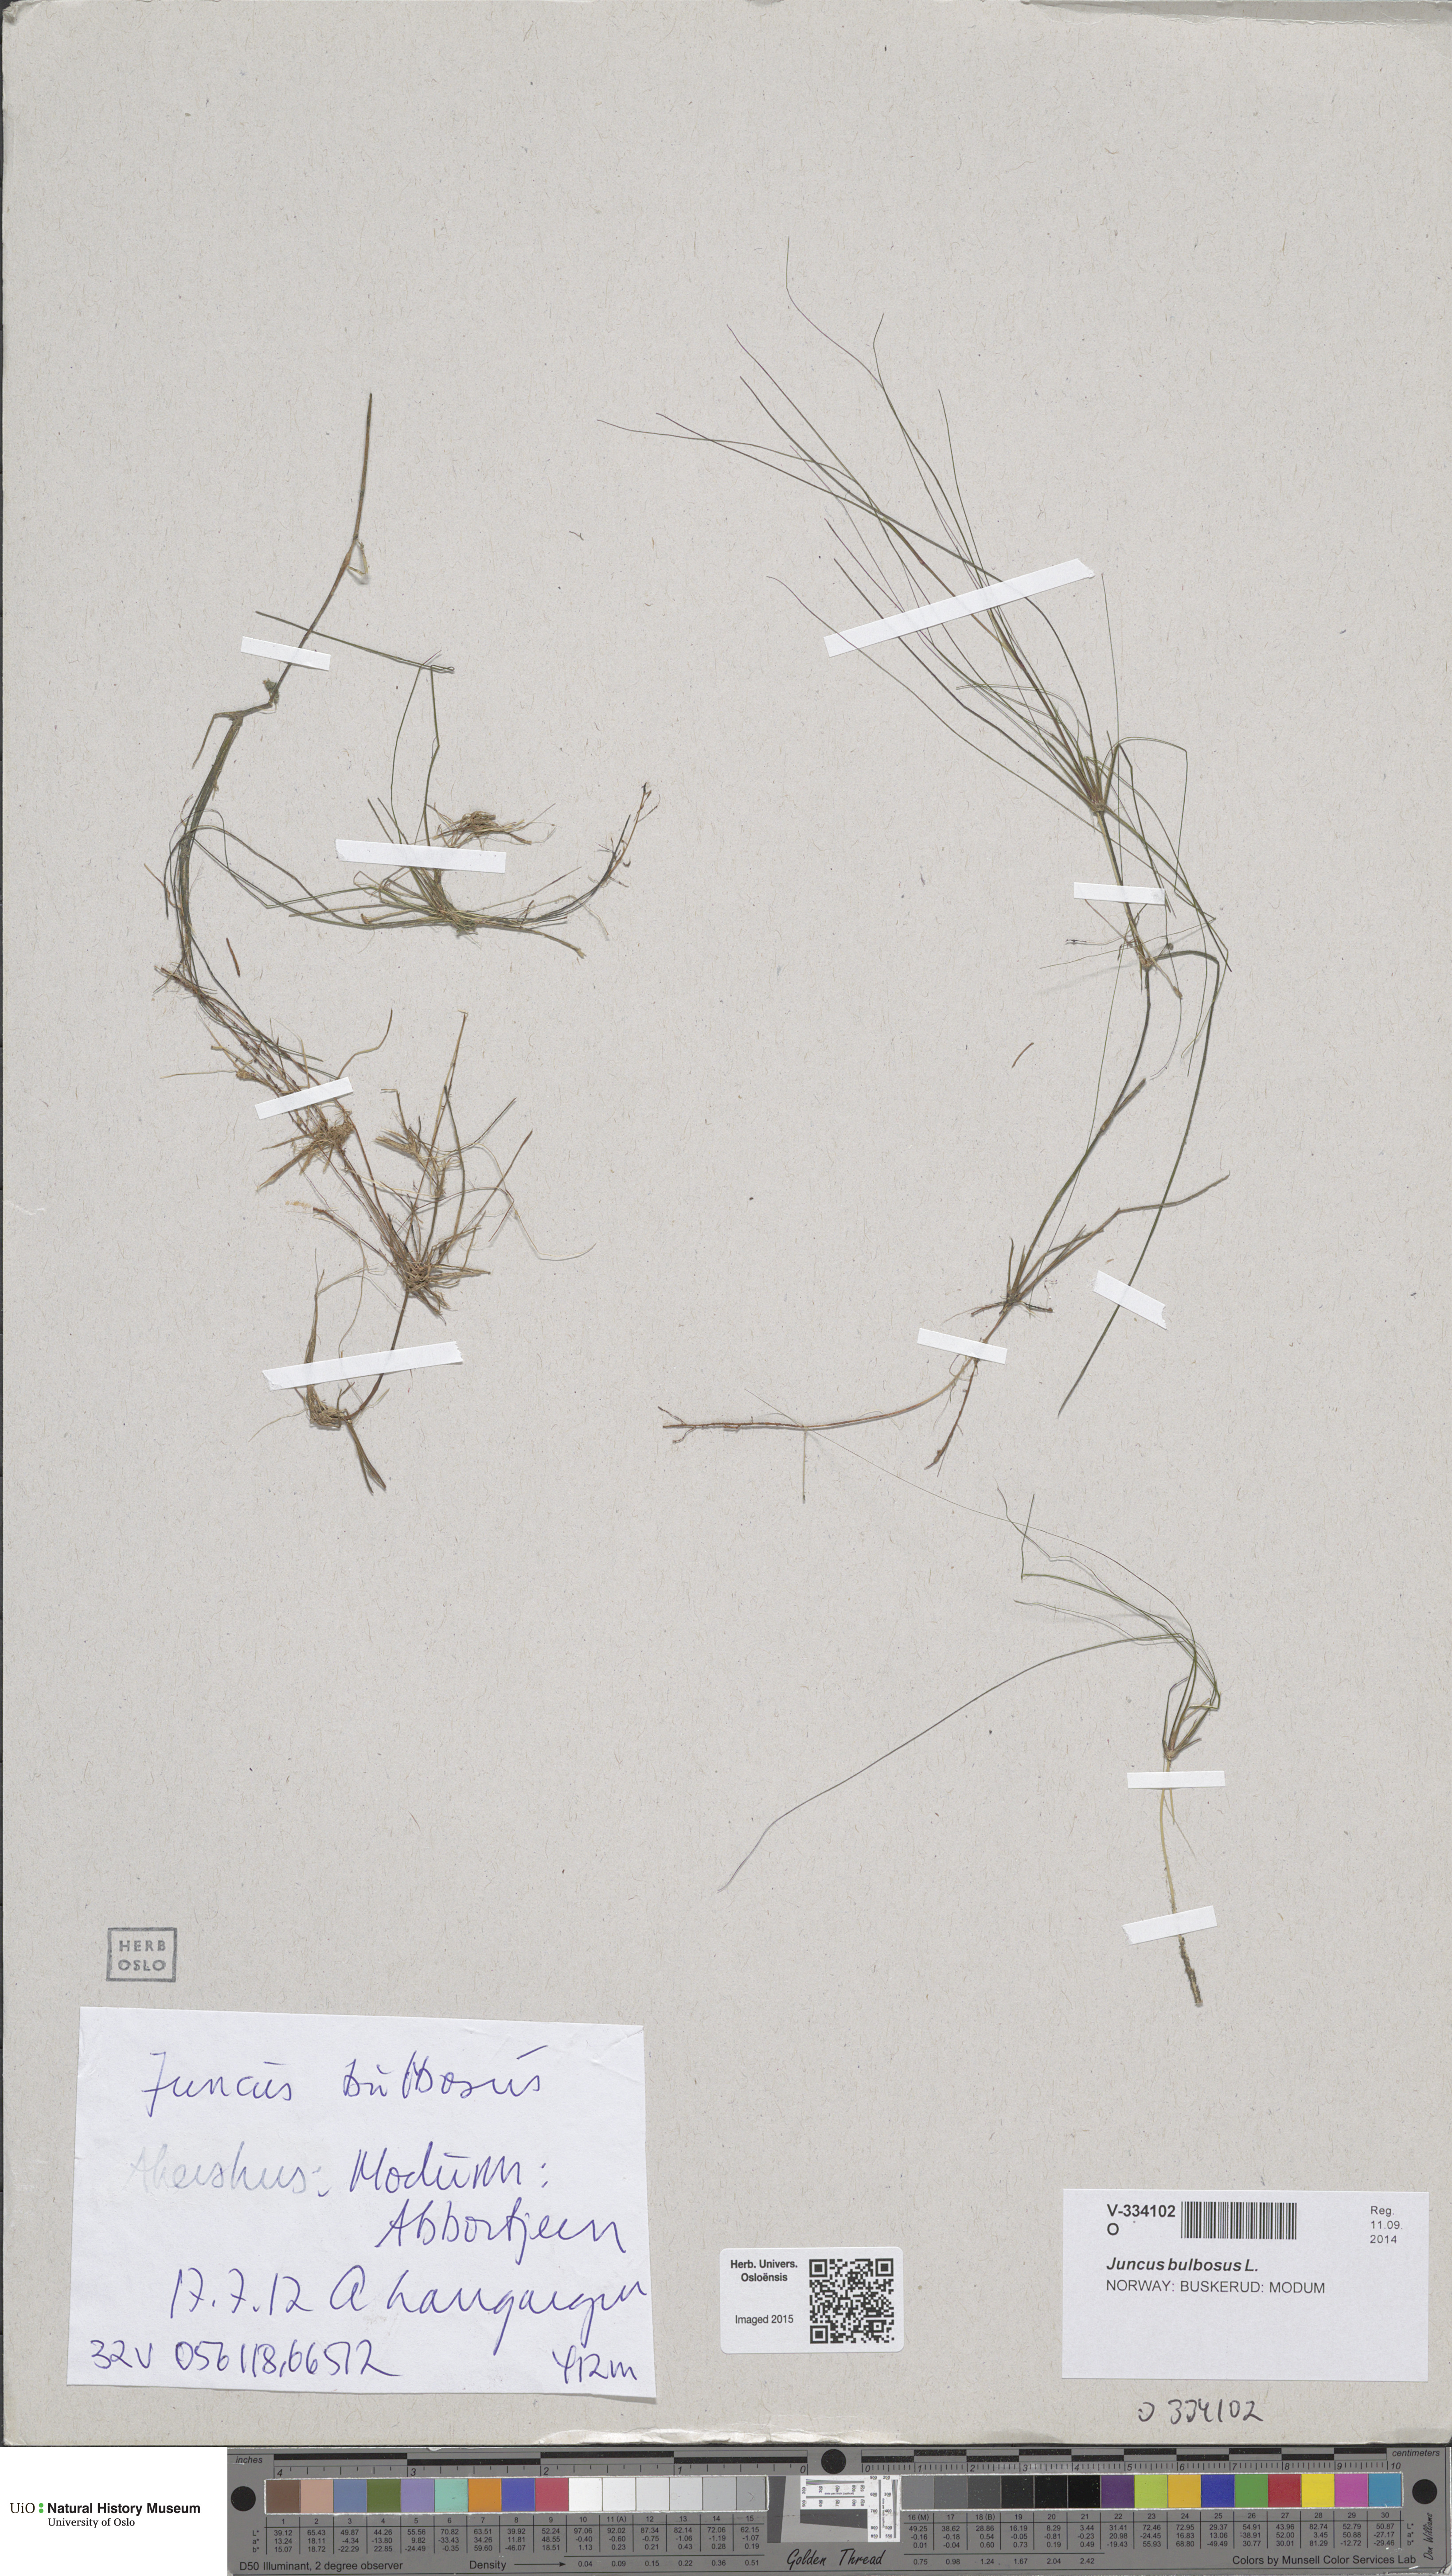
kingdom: Plantae
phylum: Tracheophyta
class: Liliopsida
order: Poales
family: Juncaceae
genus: Juncus
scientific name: Juncus bulbosus
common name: Bulbous rush
